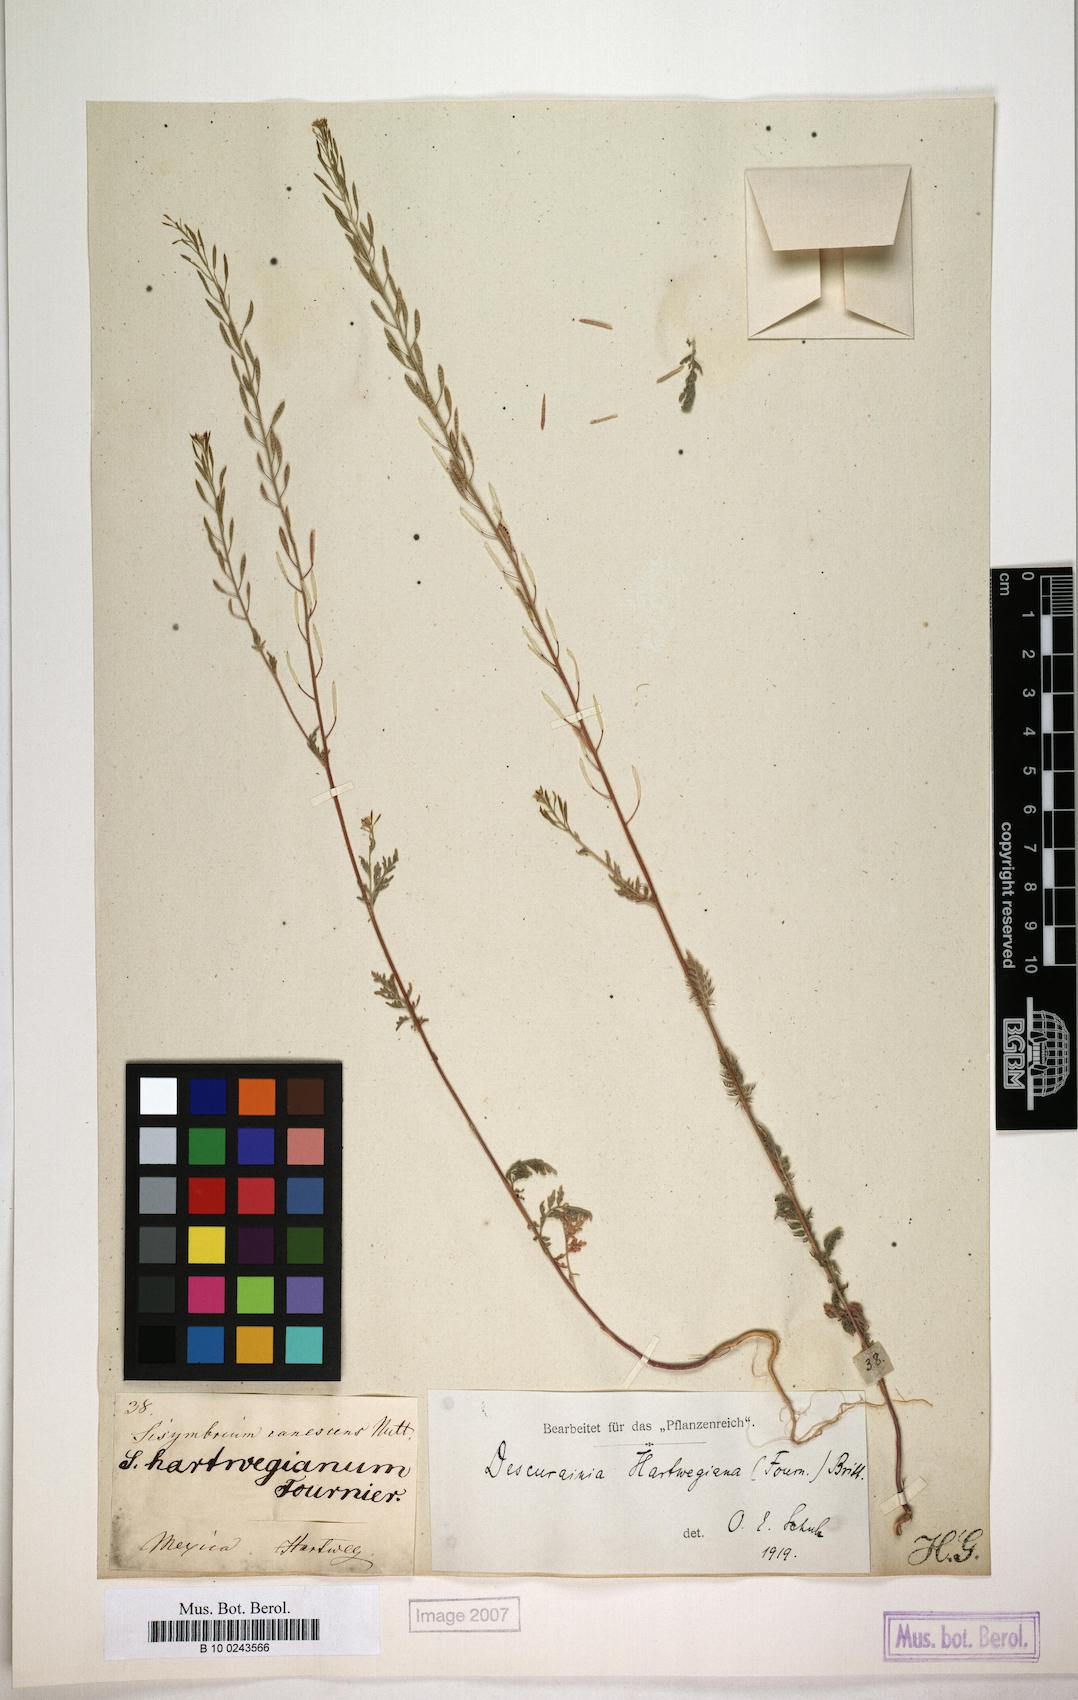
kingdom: Plantae
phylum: Tracheophyta
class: Magnoliopsida
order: Brassicales
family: Brassicaceae
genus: Descurainia
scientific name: Descurainia hartwegiana
